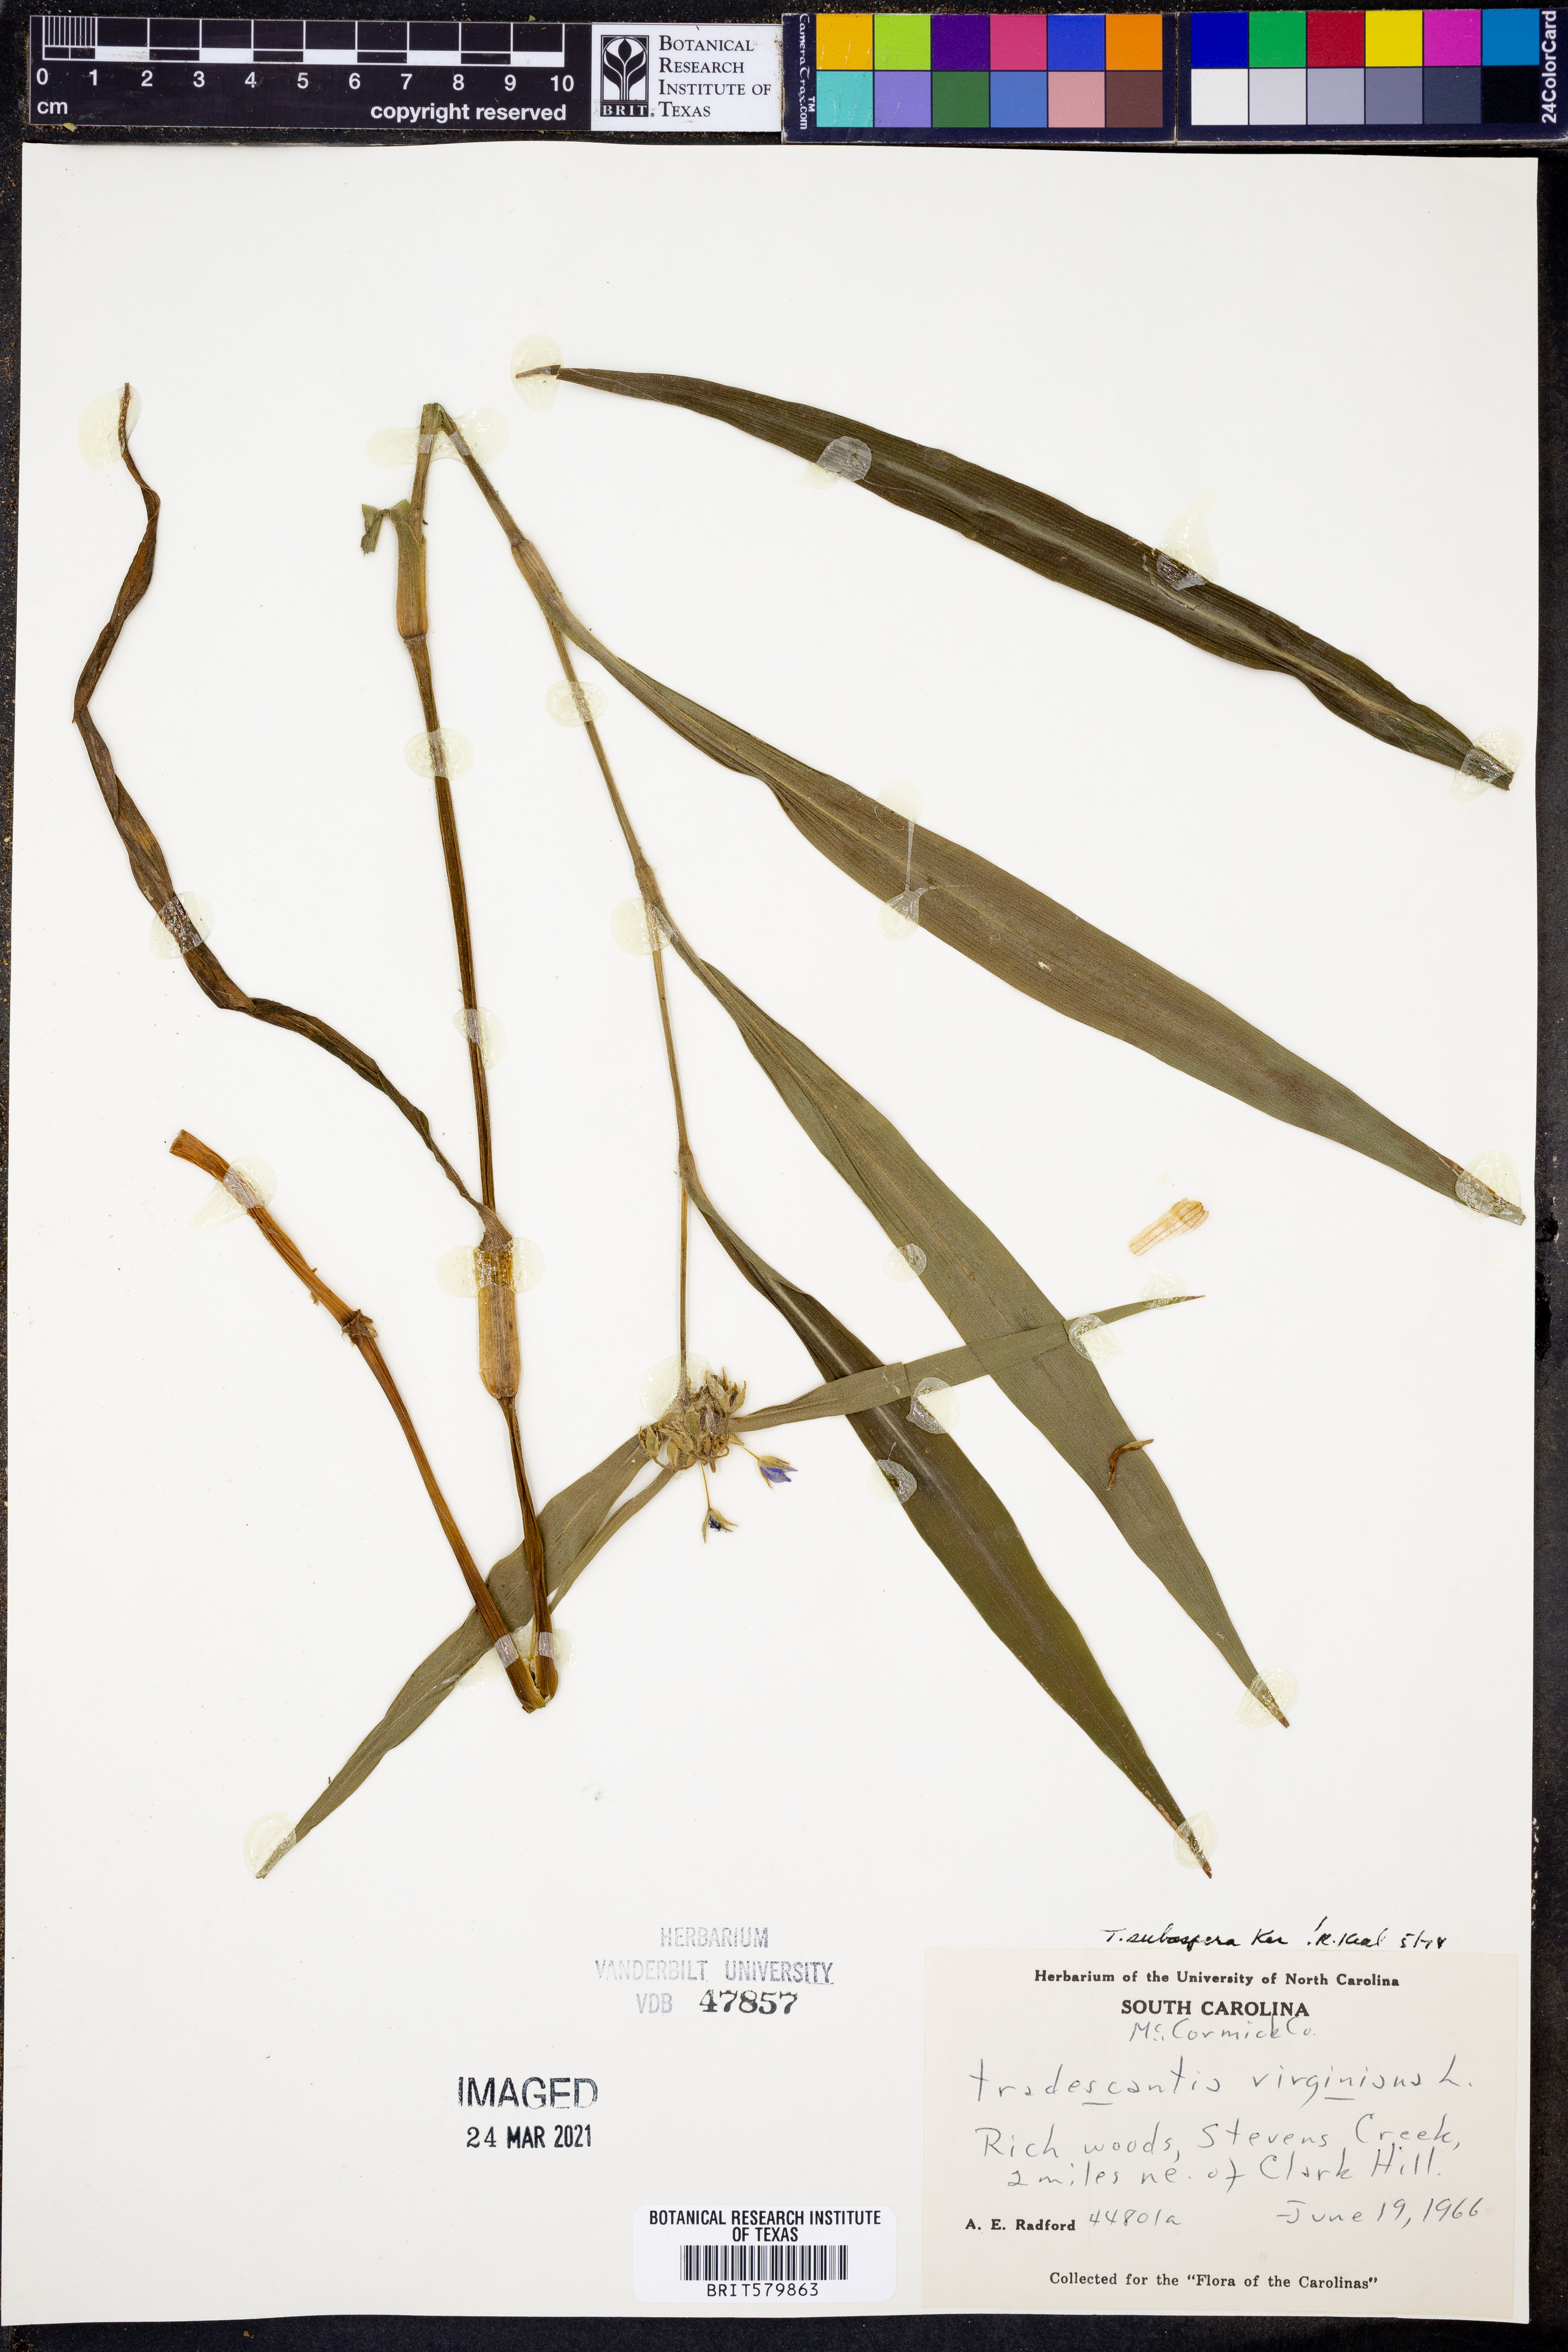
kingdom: Plantae
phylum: Tracheophyta
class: Liliopsida
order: Commelinales
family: Commelinaceae
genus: Tradescantia
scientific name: Tradescantia subaspera
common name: Wide-leaf spiderwort
